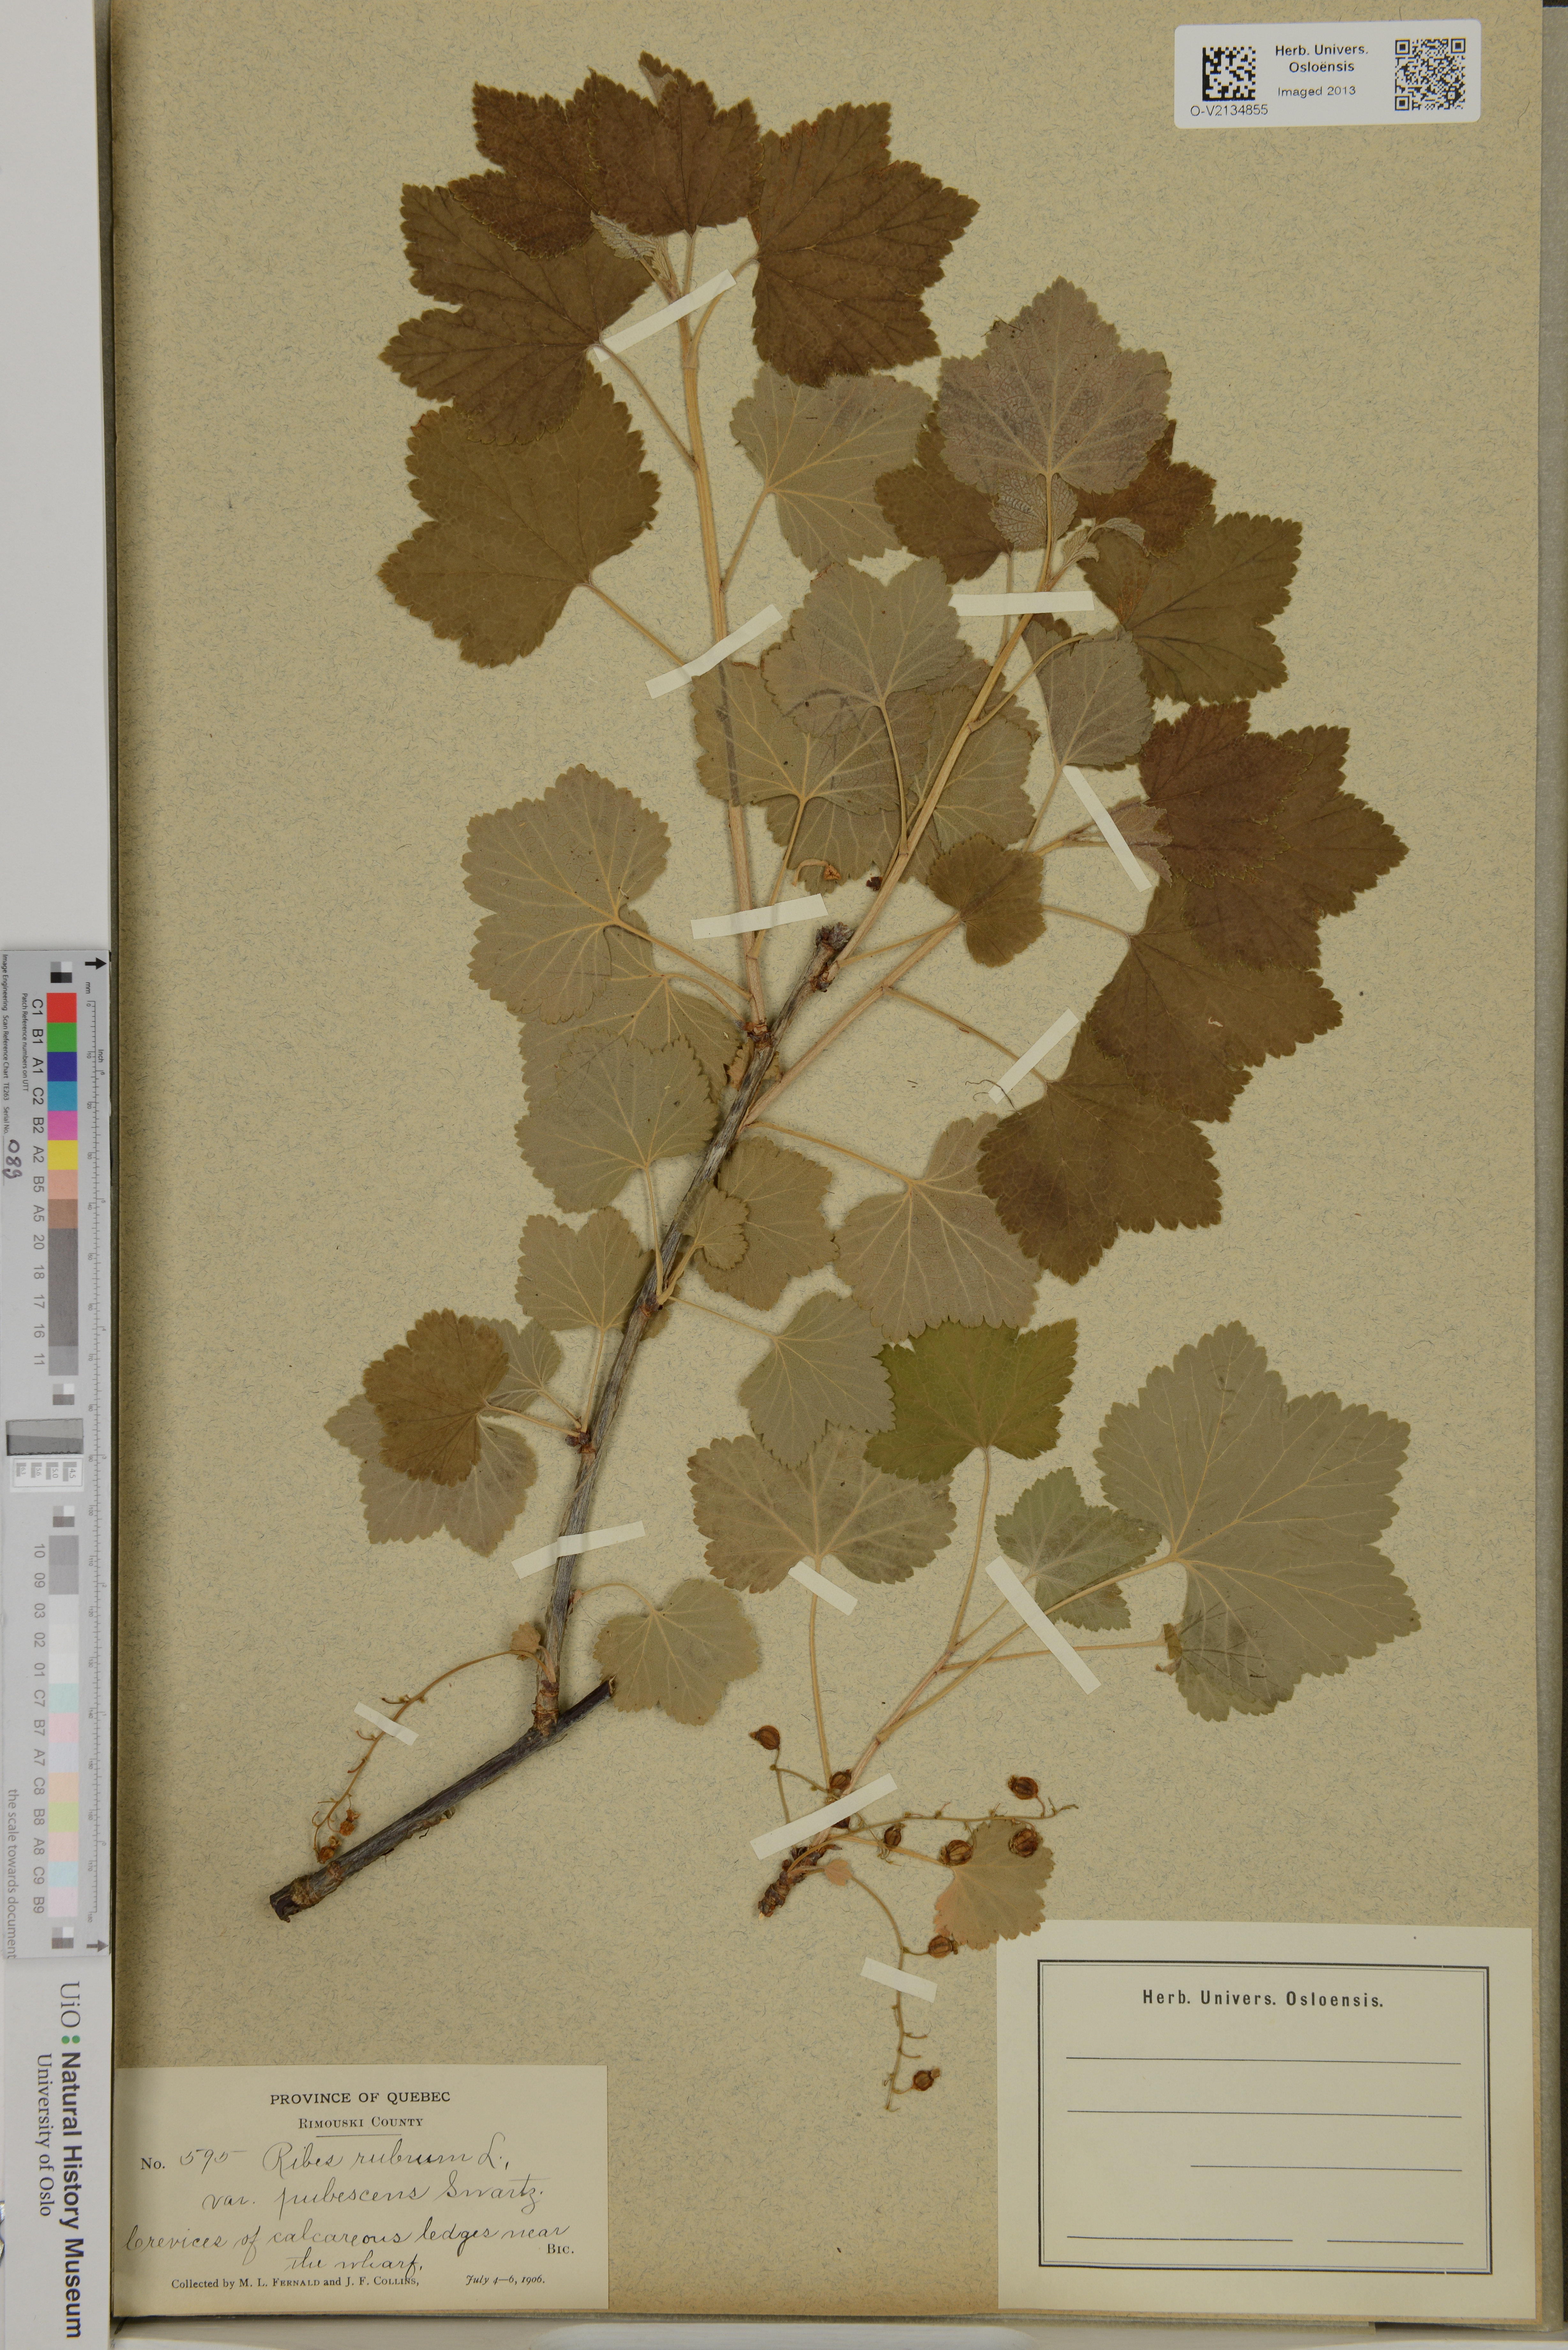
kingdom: Plantae
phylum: Tracheophyta
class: Magnoliopsida
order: Saxifragales
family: Grossulariaceae
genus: Ribes
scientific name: Ribes rubrum
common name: Red currant
